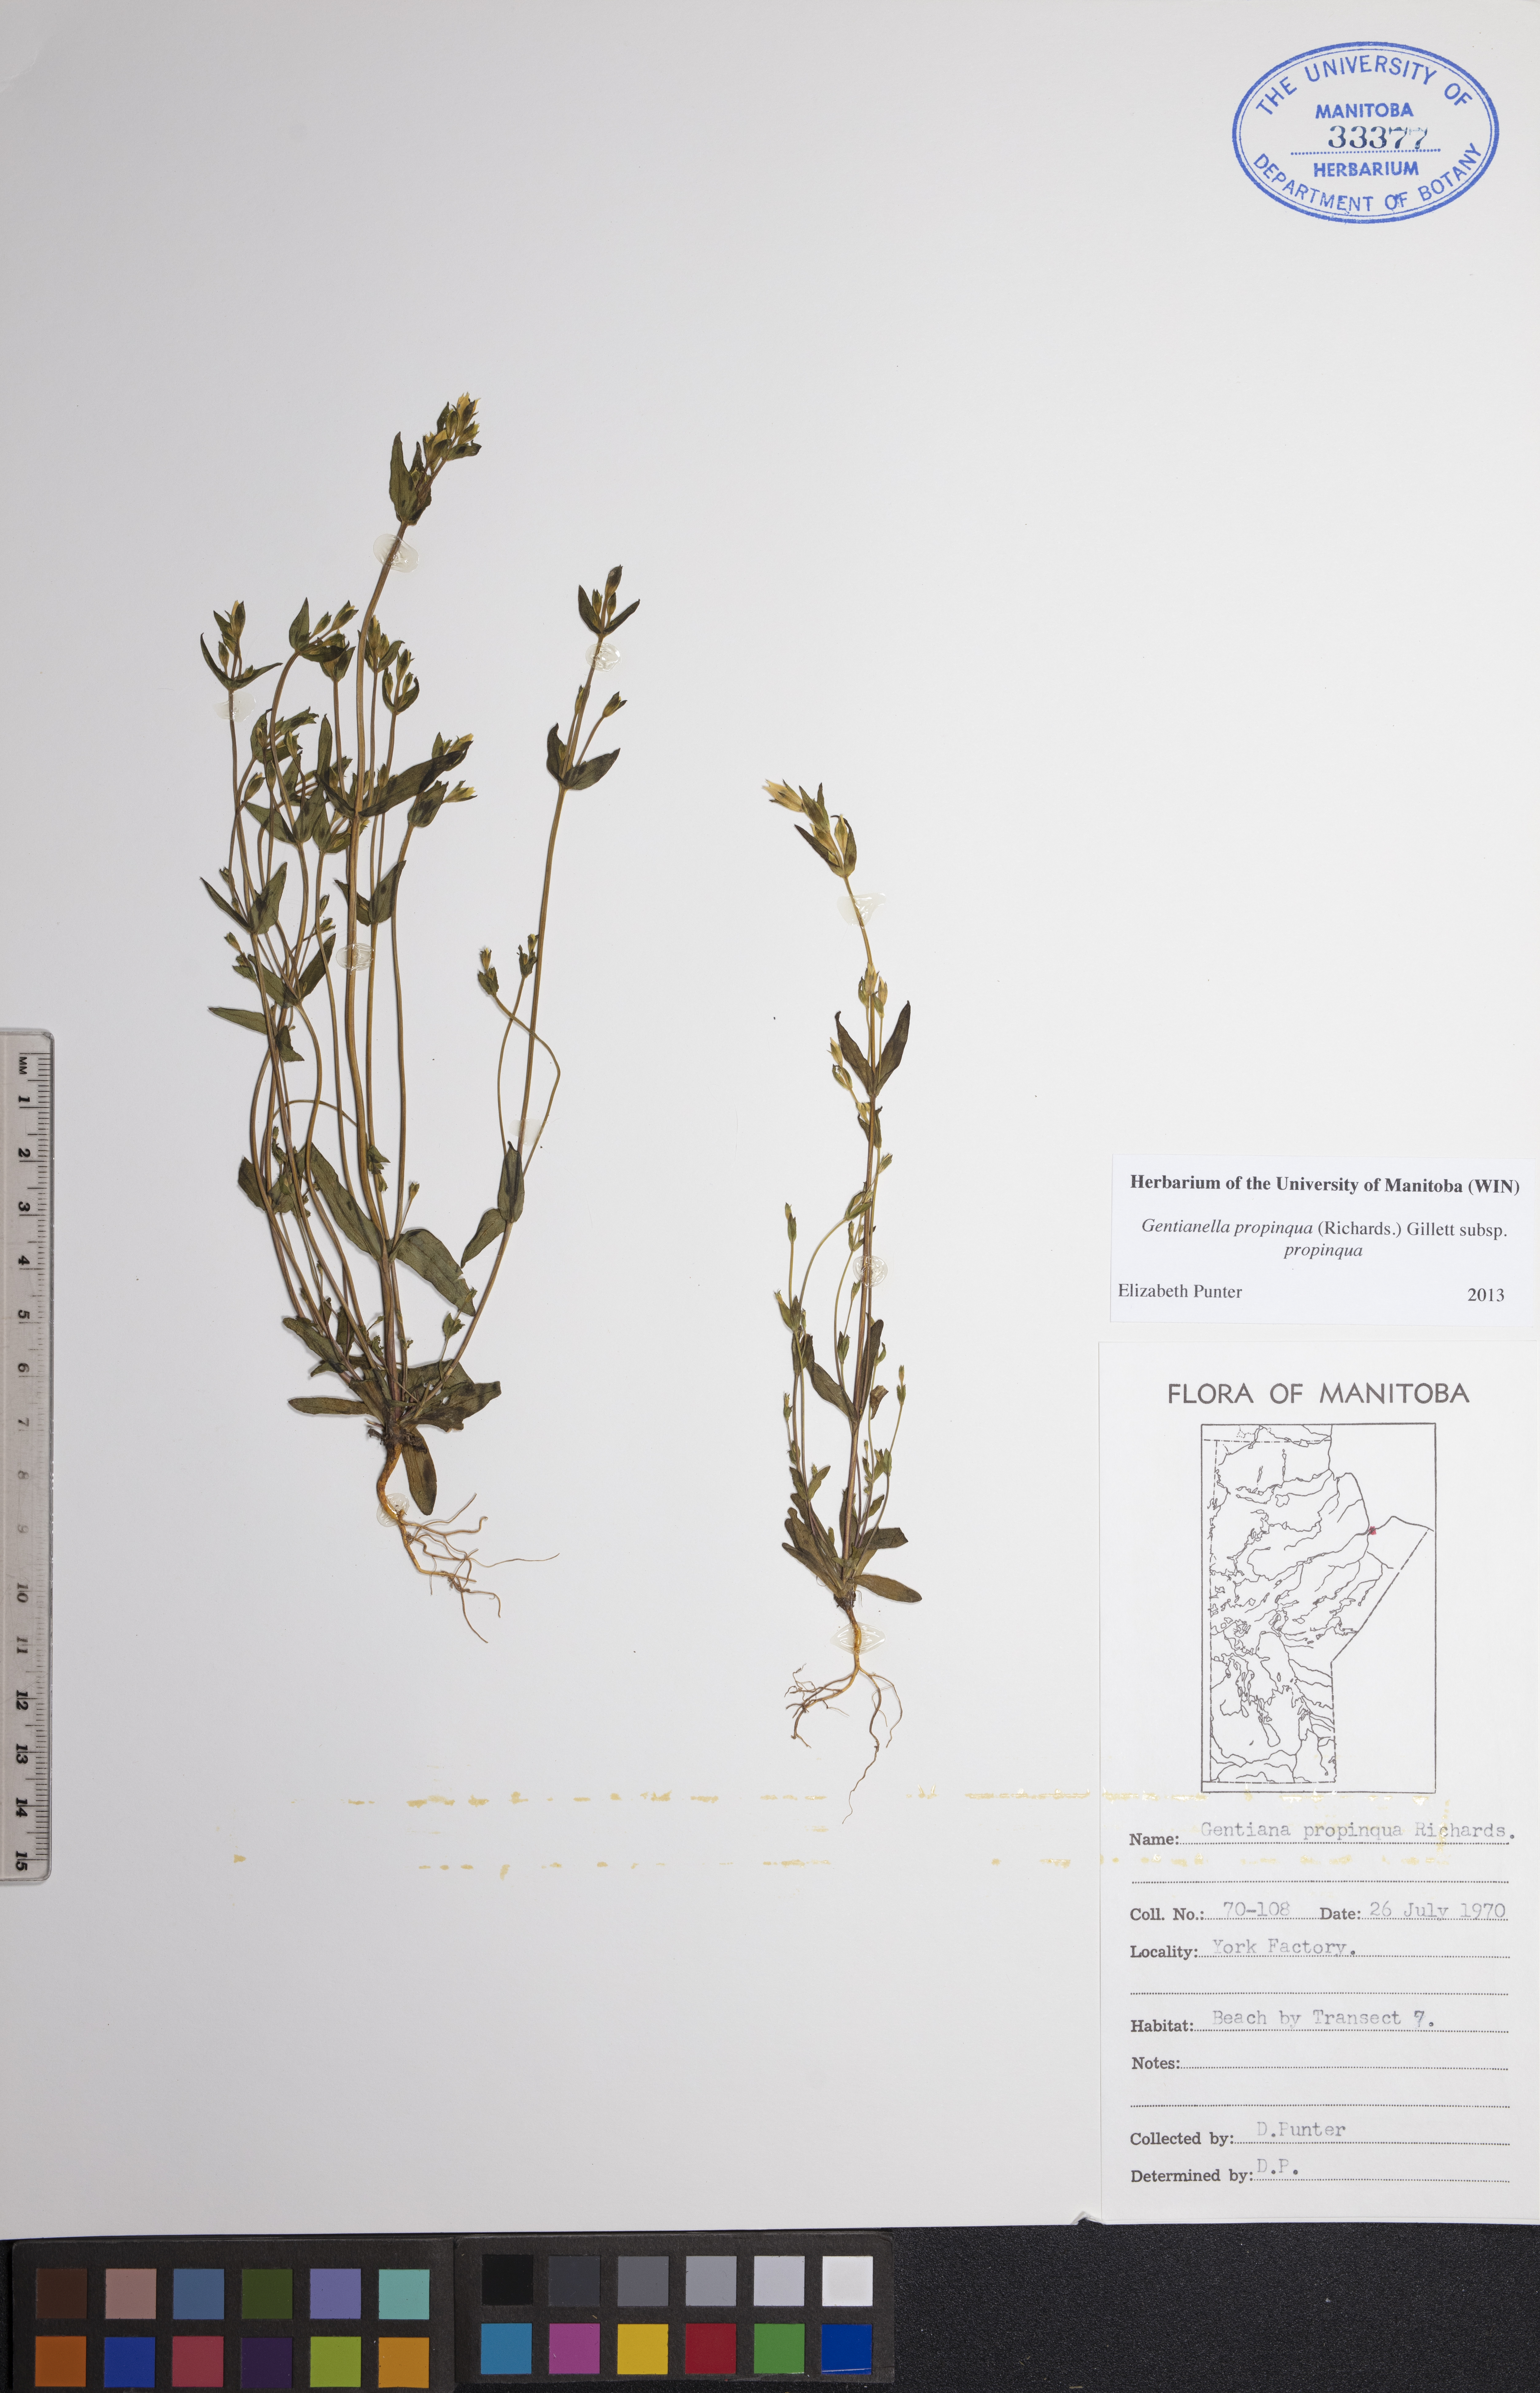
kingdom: Plantae
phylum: Tracheophyta
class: Magnoliopsida
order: Gentianales
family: Gentianaceae
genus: Gentianella
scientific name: Gentianella propinqua
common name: Four-parted dwarf-gentian
